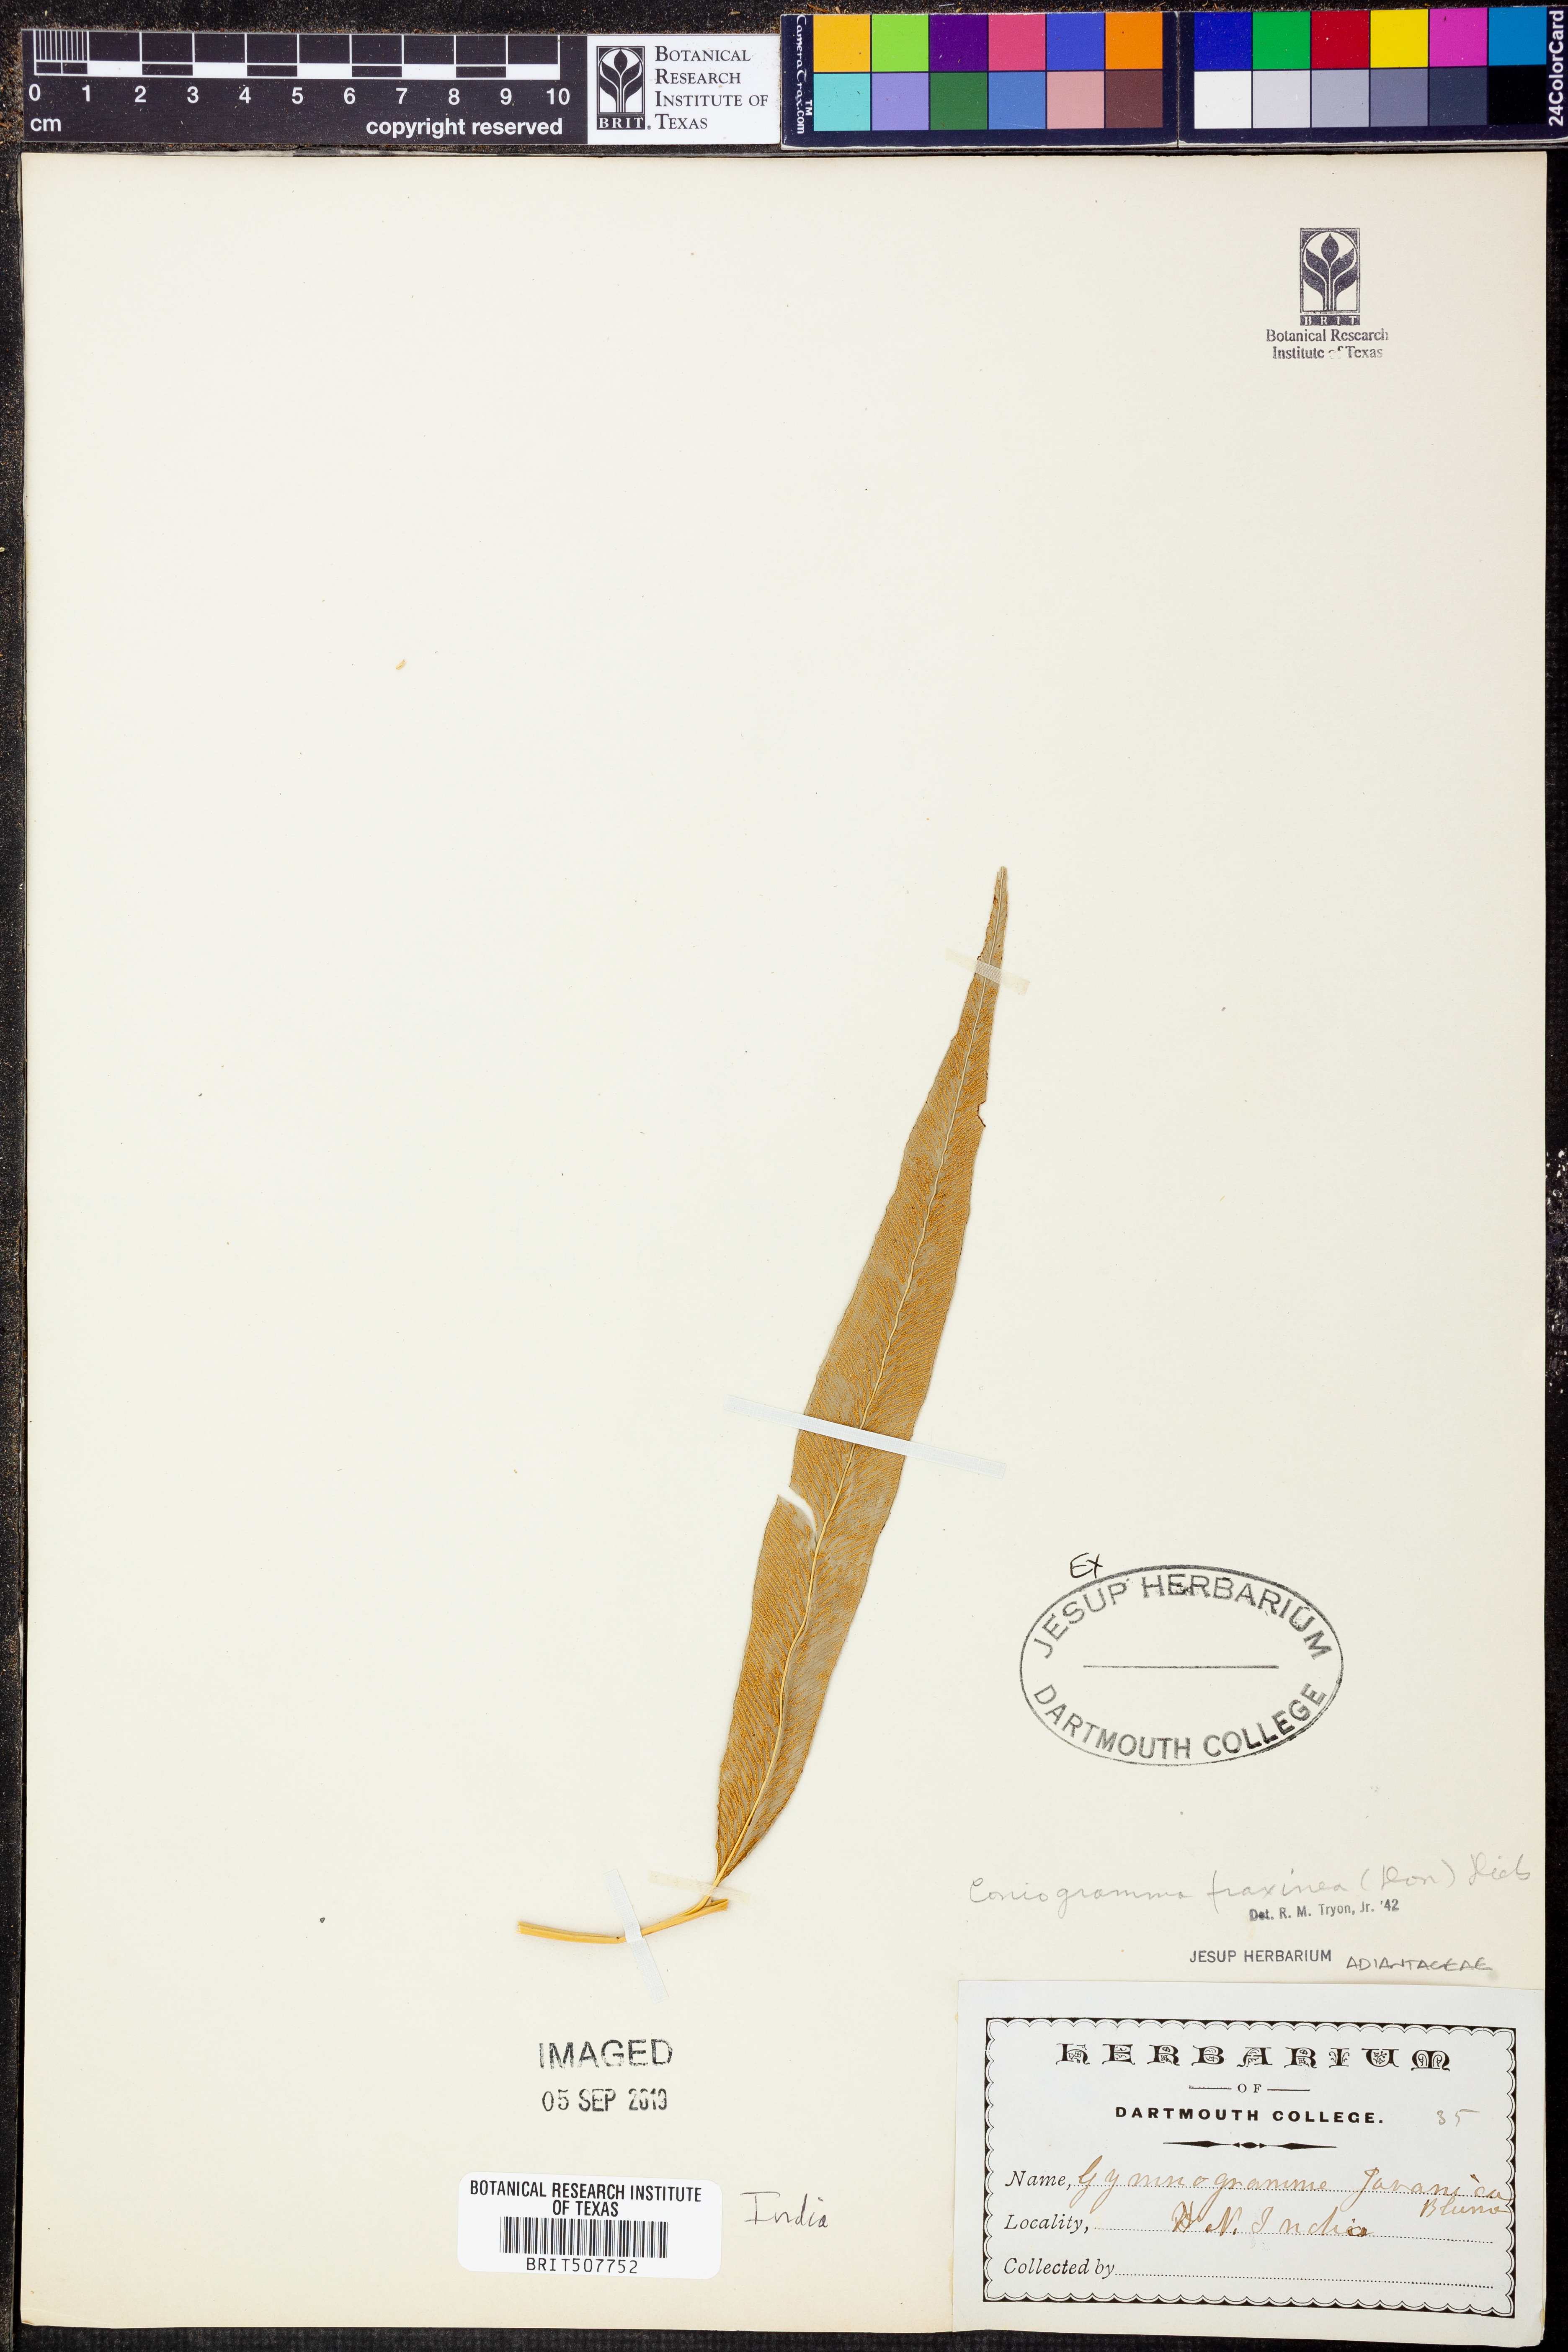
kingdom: Plantae
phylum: Tracheophyta
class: Polypodiopsida
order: Polypodiales
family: Pteridaceae
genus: Coniogramme
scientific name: Coniogramme fraxinea
